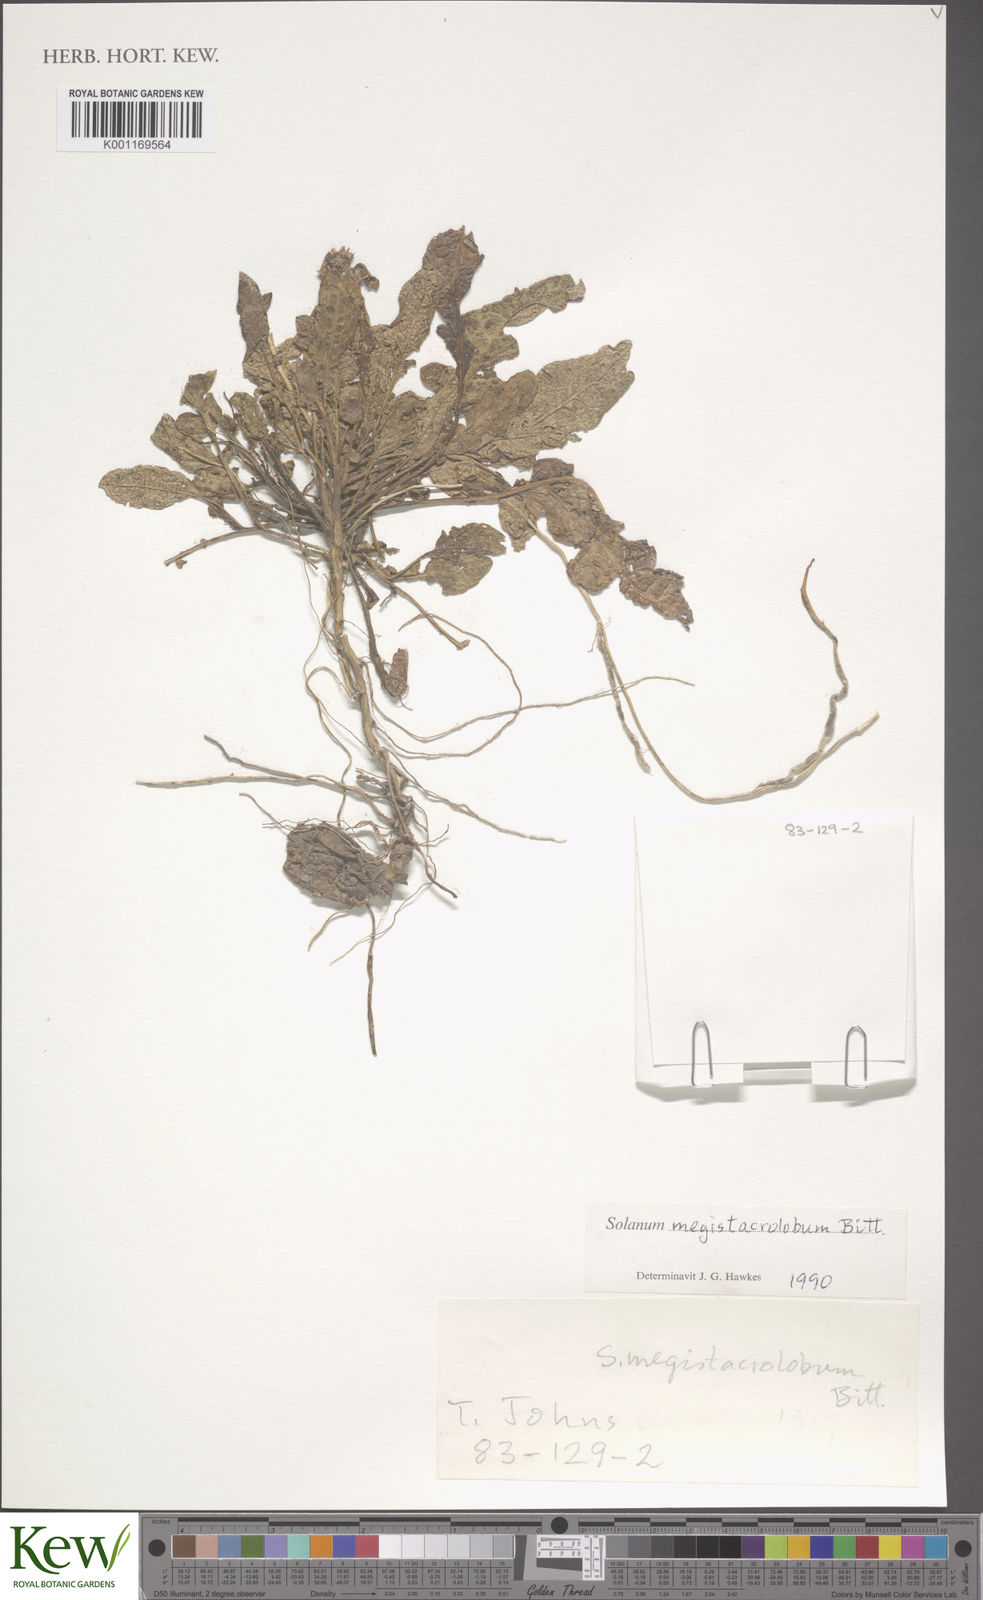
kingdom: Plantae
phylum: Tracheophyta
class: Magnoliopsida
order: Solanales
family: Solanaceae
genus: Solanum
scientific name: Solanum boliviense
